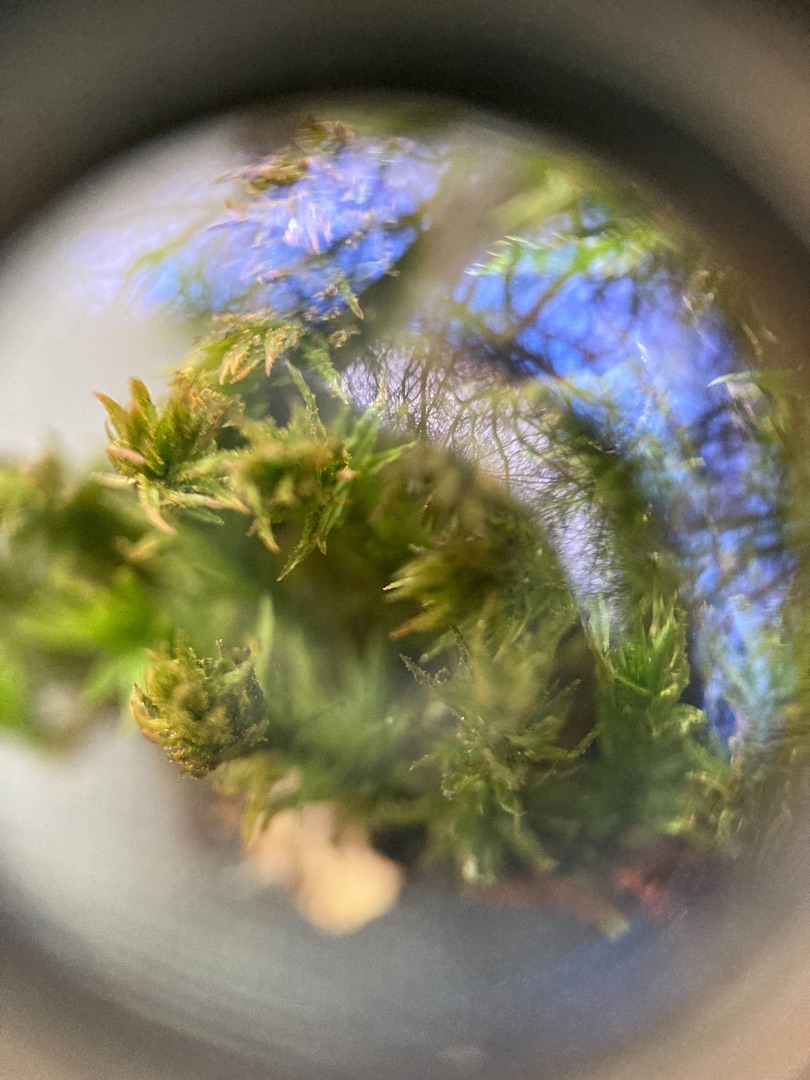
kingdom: Plantae
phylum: Bryophyta
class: Bryopsida
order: Orthotrichales
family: Orthotrichaceae
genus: Pulvigera
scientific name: Pulvigera lyellii
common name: Stor furehætte
